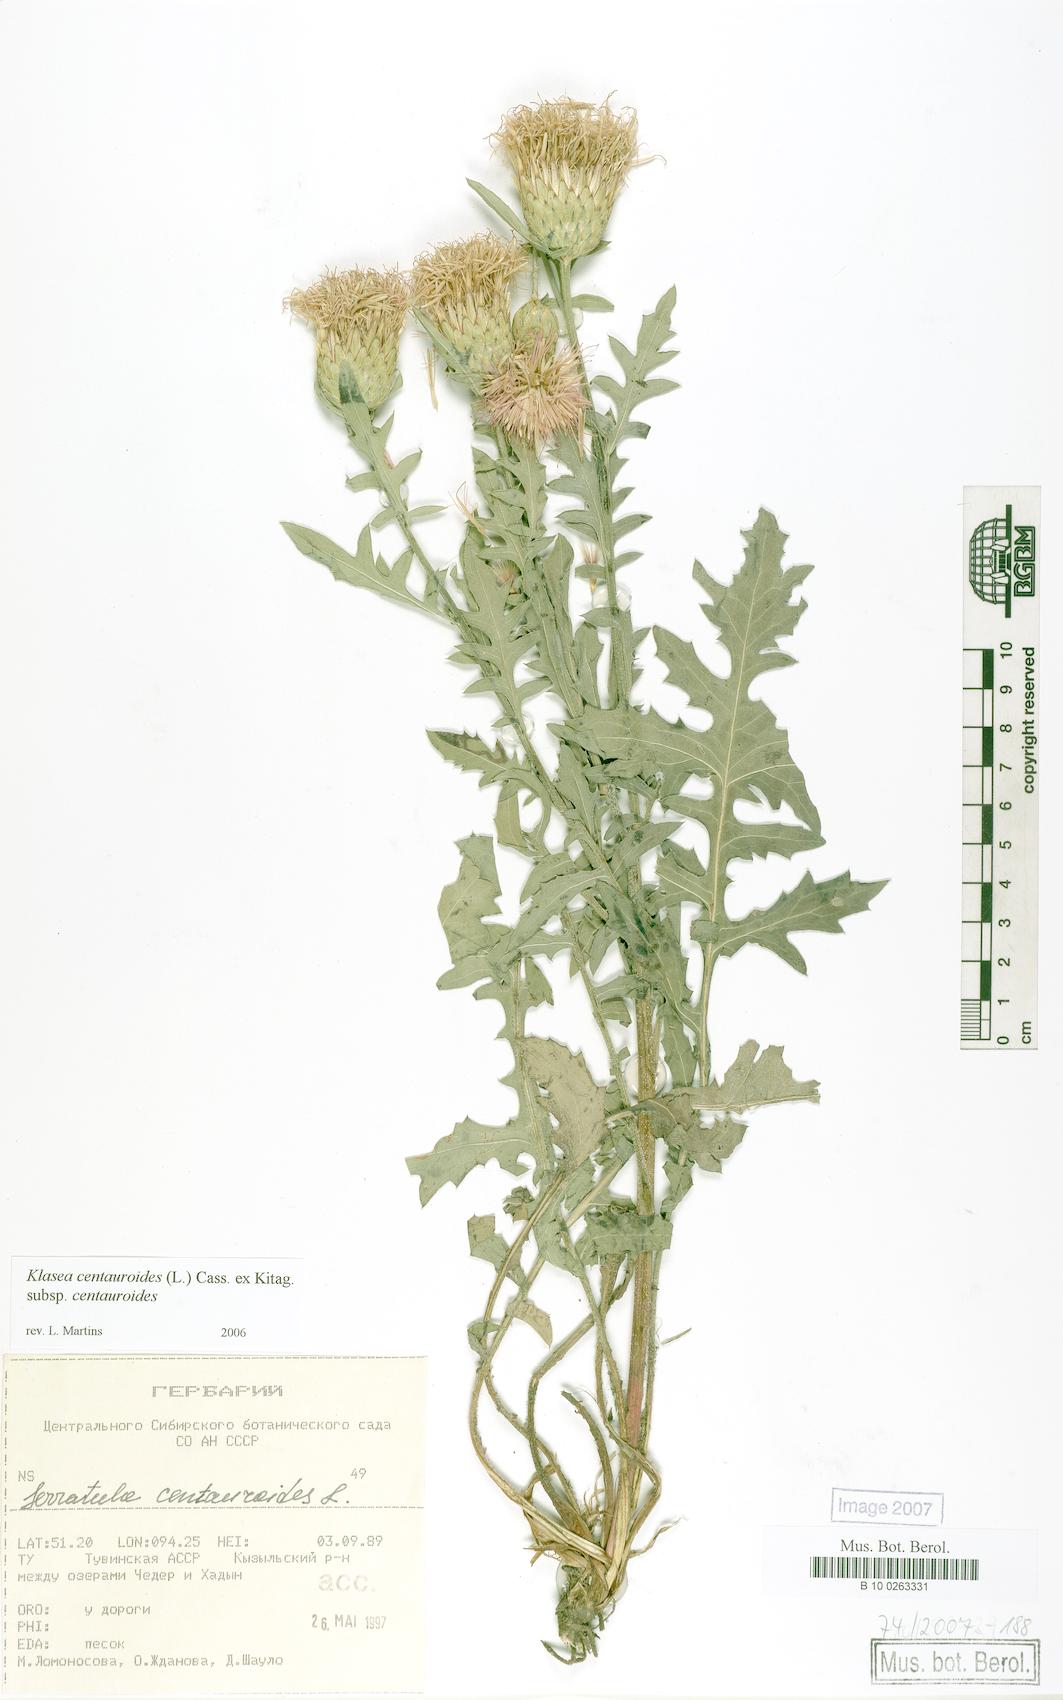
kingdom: Plantae
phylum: Tracheophyta
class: Magnoliopsida
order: Asterales
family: Asteraceae
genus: Klasea
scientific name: Klasea centauroides
